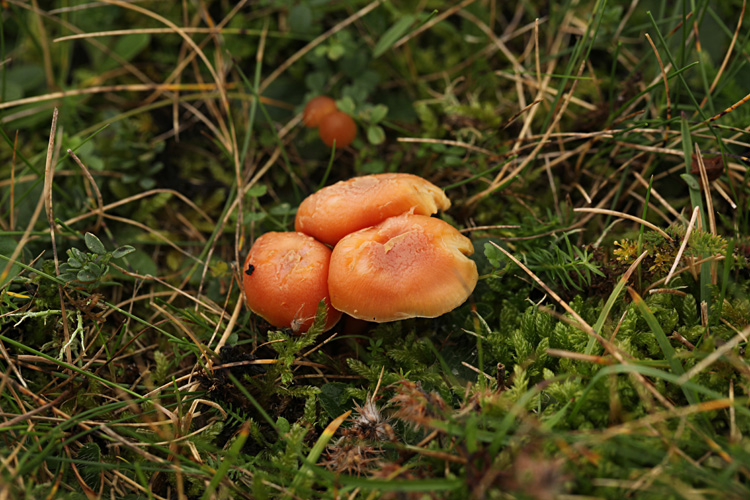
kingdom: Fungi
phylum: Basidiomycota
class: Agaricomycetes
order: Agaricales
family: Hygrophoraceae
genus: Hygrocybe
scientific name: Hygrocybe miniata
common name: mønje-vokshat
